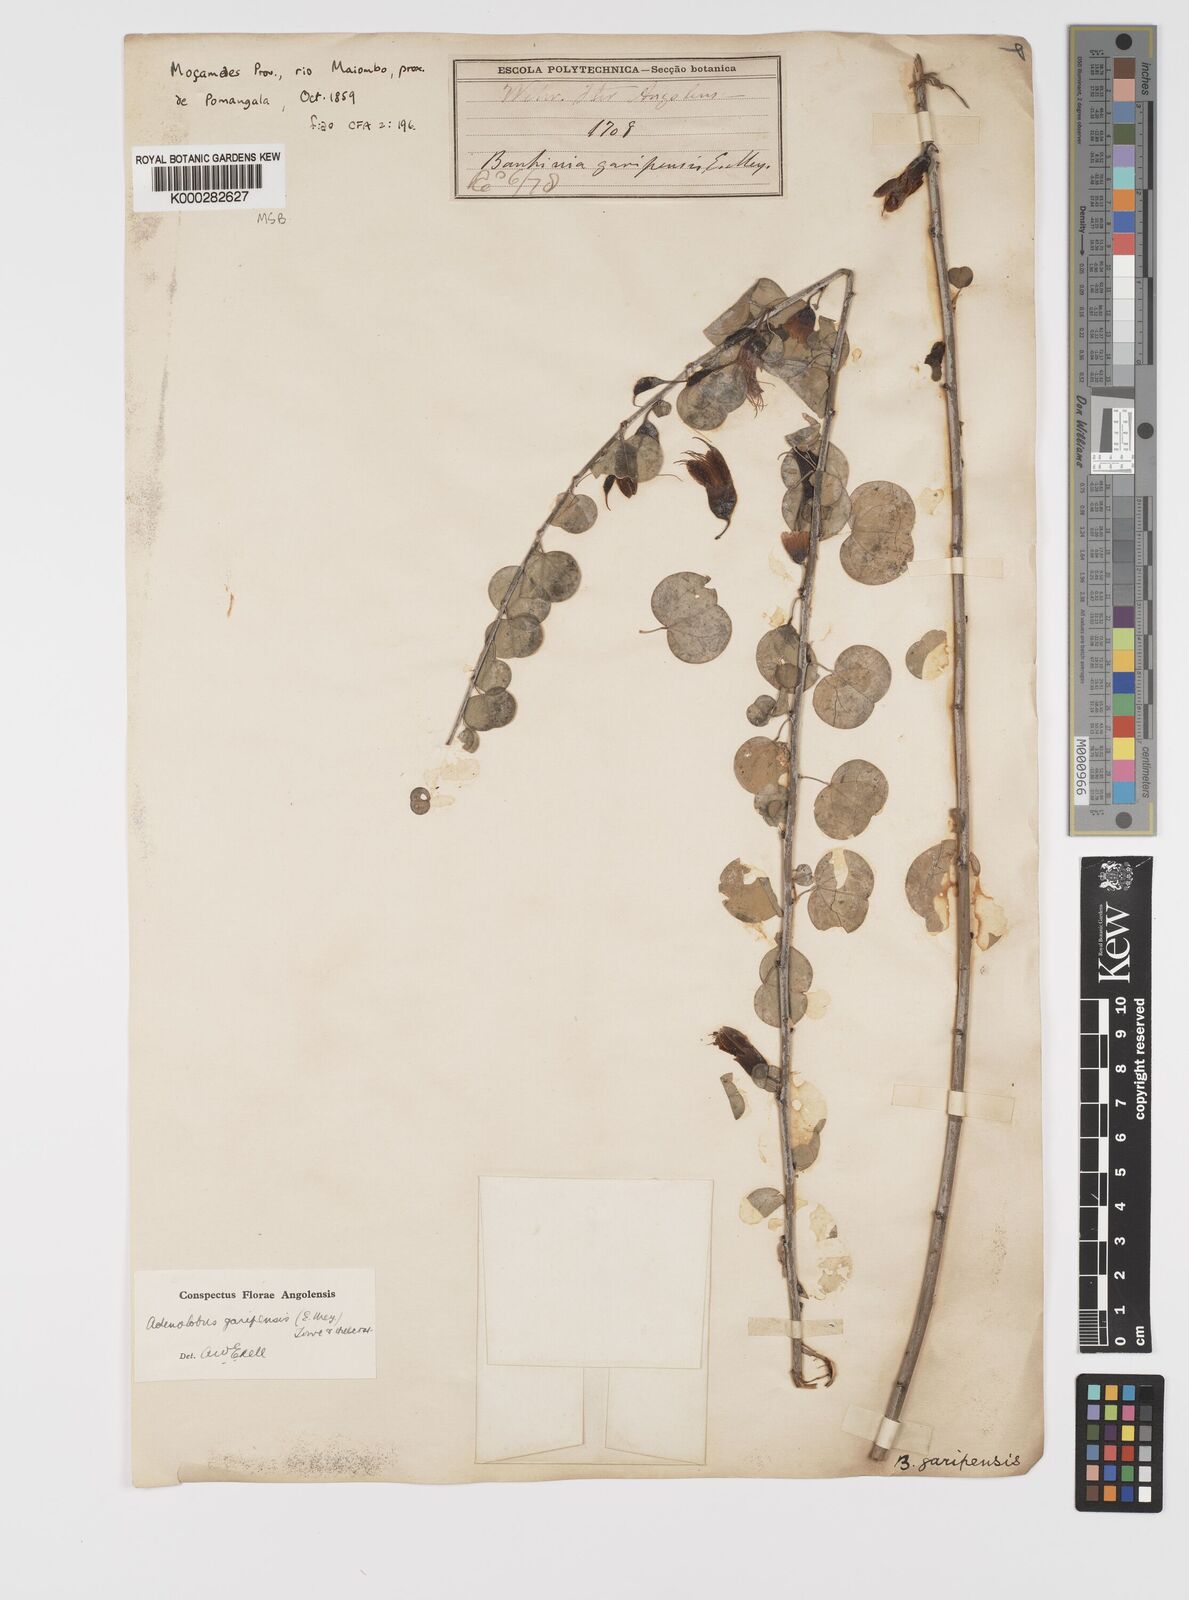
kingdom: Plantae
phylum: Tracheophyta
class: Magnoliopsida
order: Fabales
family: Fabaceae
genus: Adenolobus
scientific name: Adenolobus garipensis
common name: Butterfly-leaf
